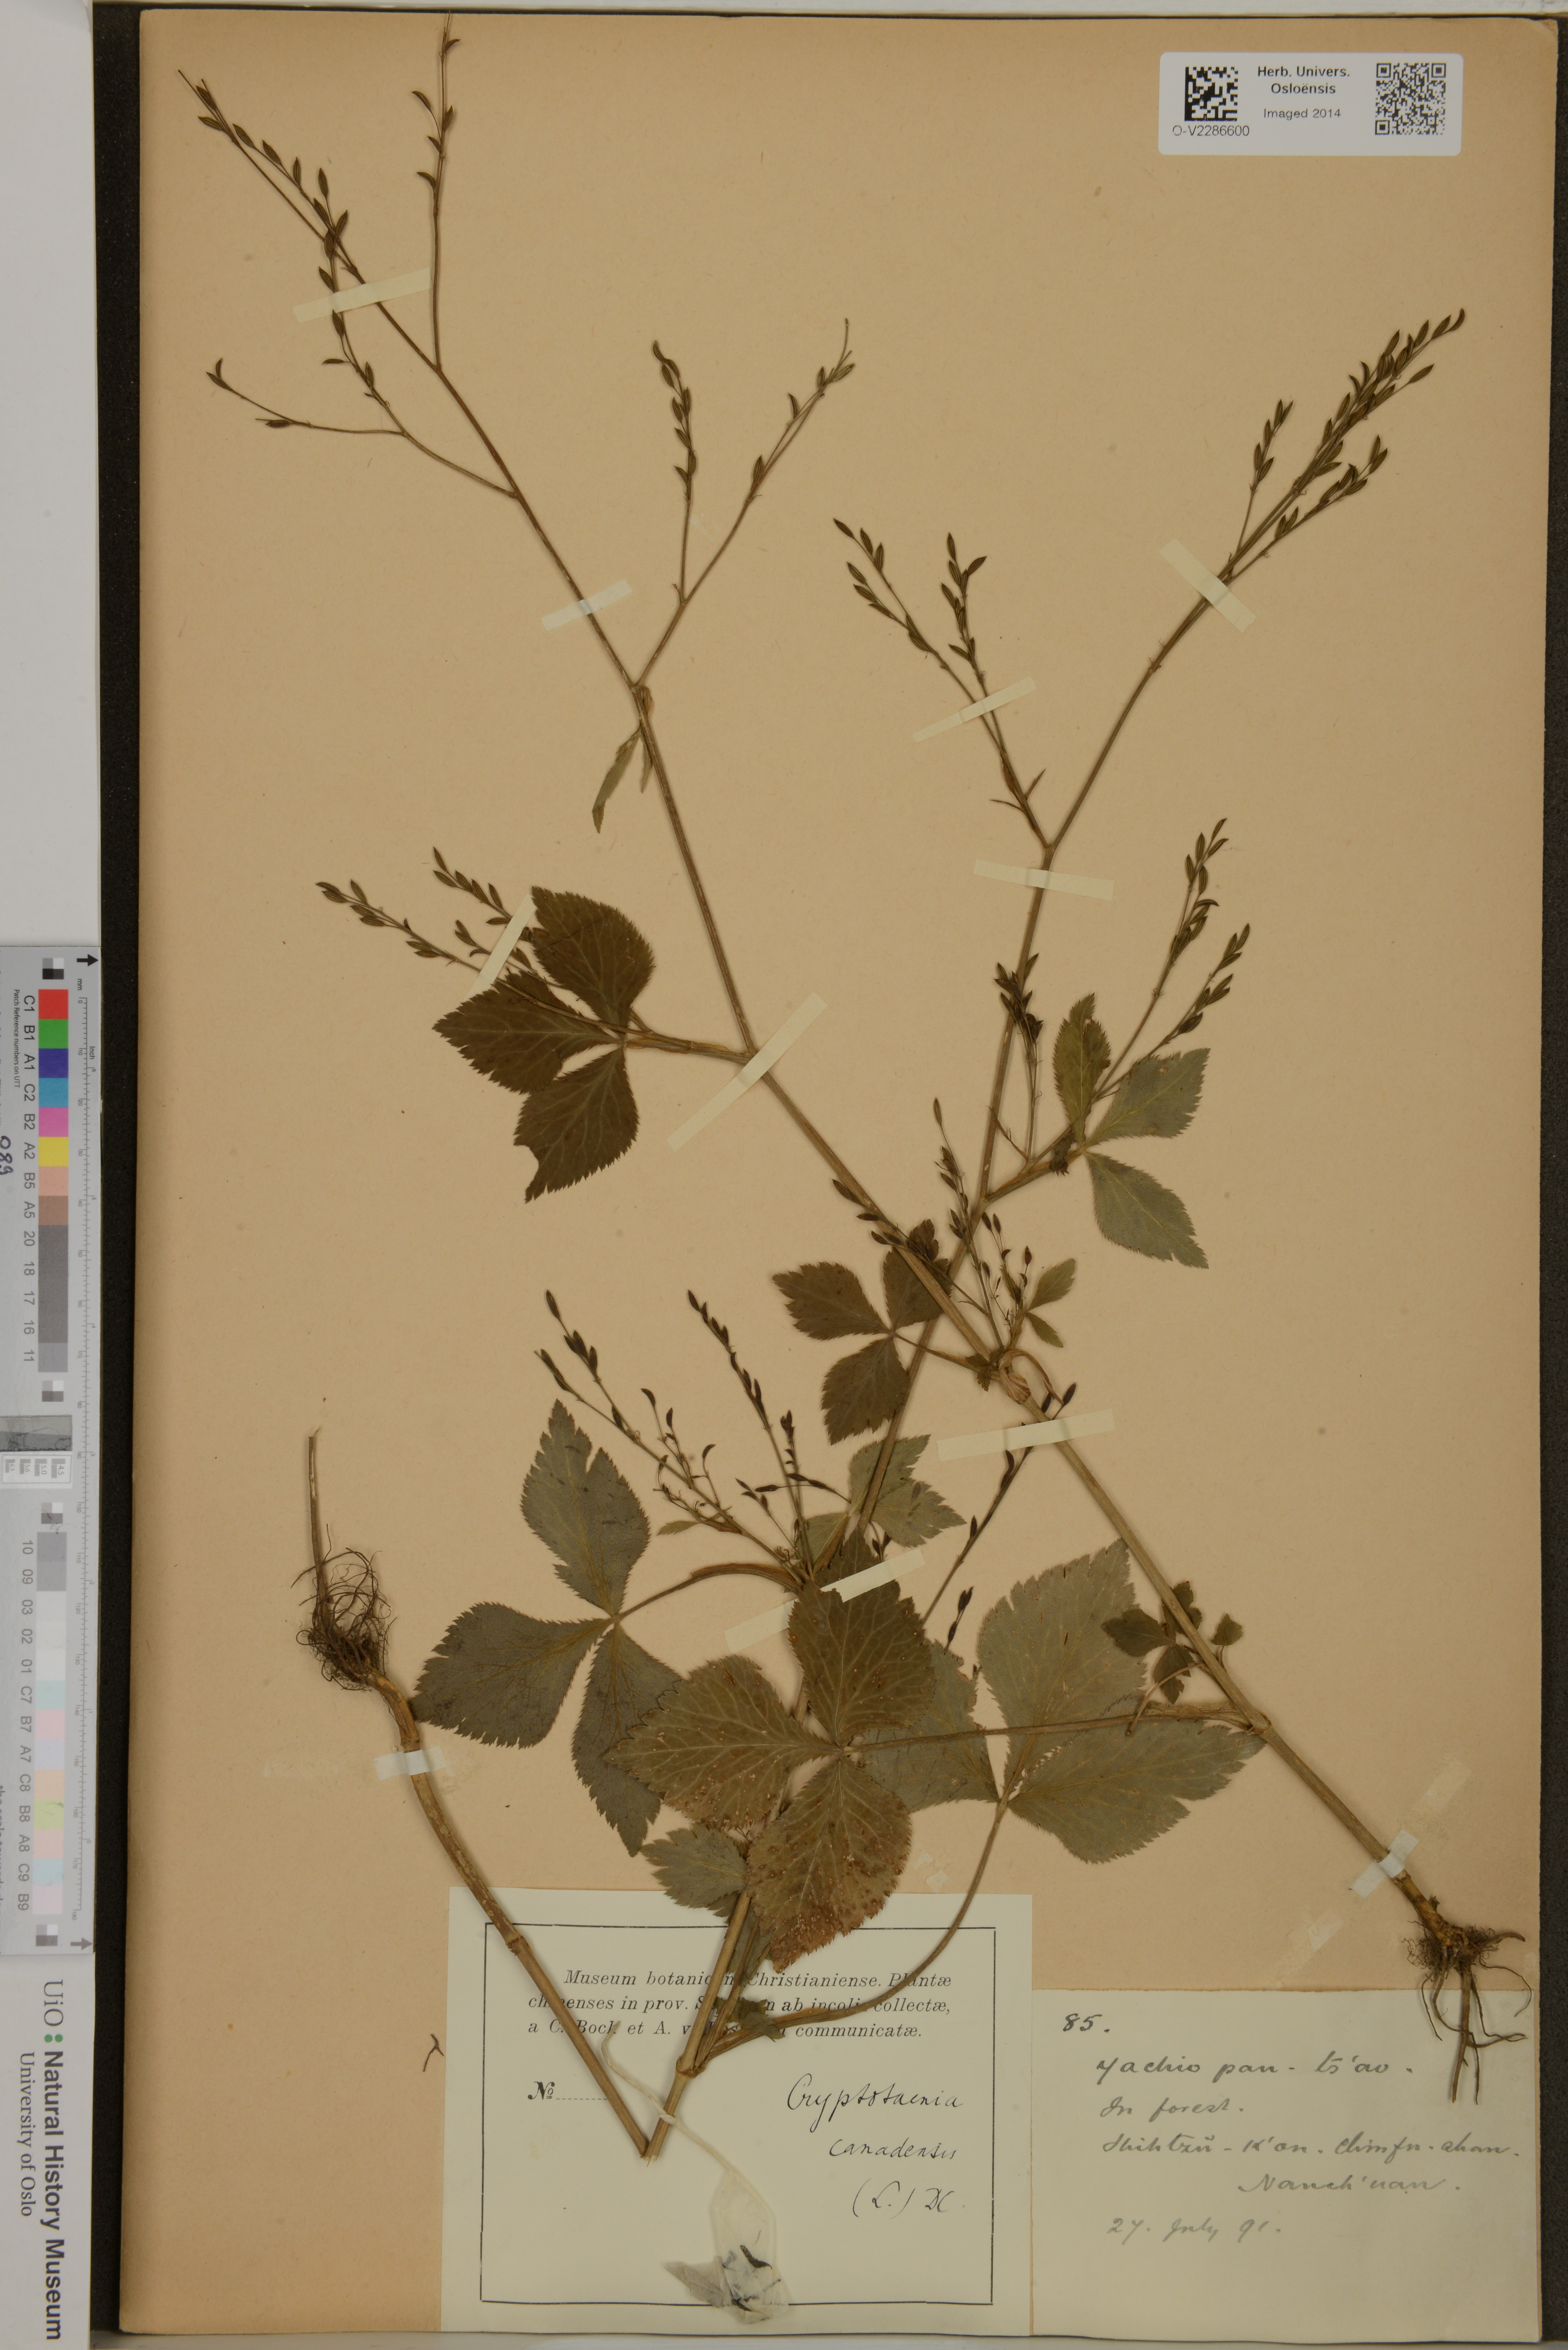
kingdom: Plantae
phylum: Tracheophyta
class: Magnoliopsida
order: Apiales
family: Apiaceae
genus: Cryptotaenia
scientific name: Cryptotaenia canadensis
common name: Honewort
